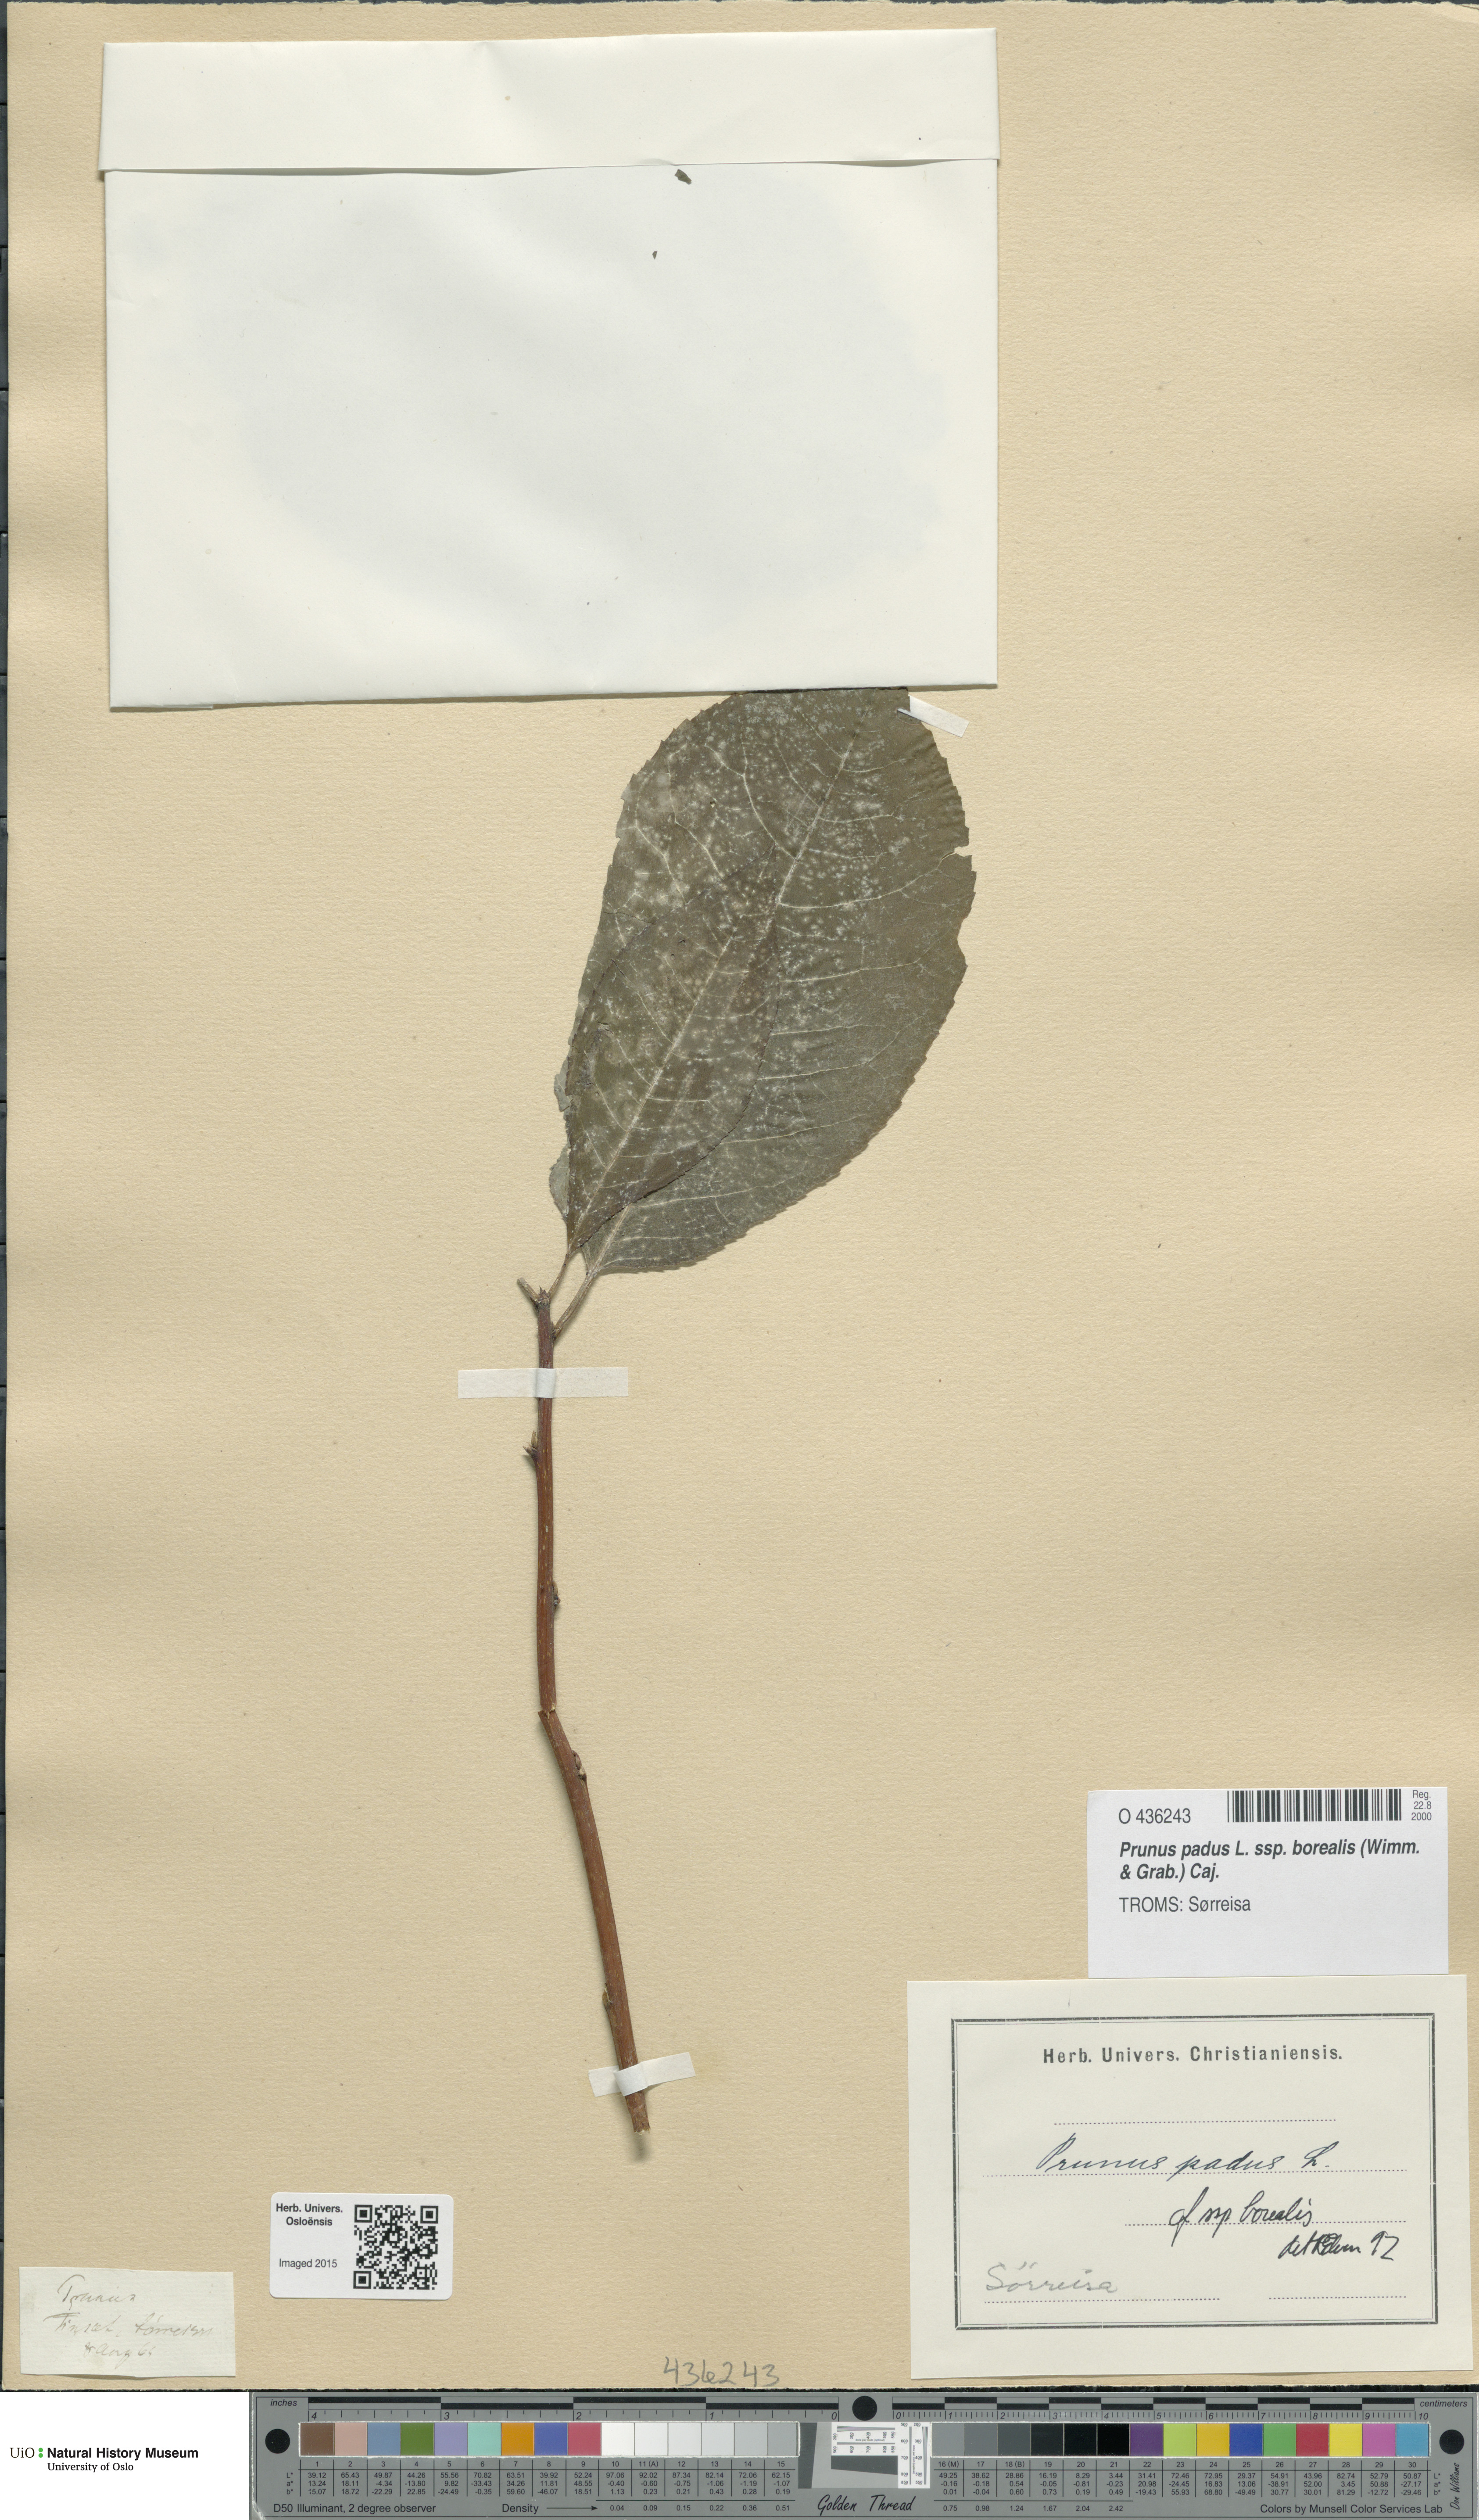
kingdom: Plantae
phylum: Tracheophyta
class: Magnoliopsida
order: Rosales
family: Rosaceae
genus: Prunus
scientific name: Prunus padus
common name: Bird cherry
